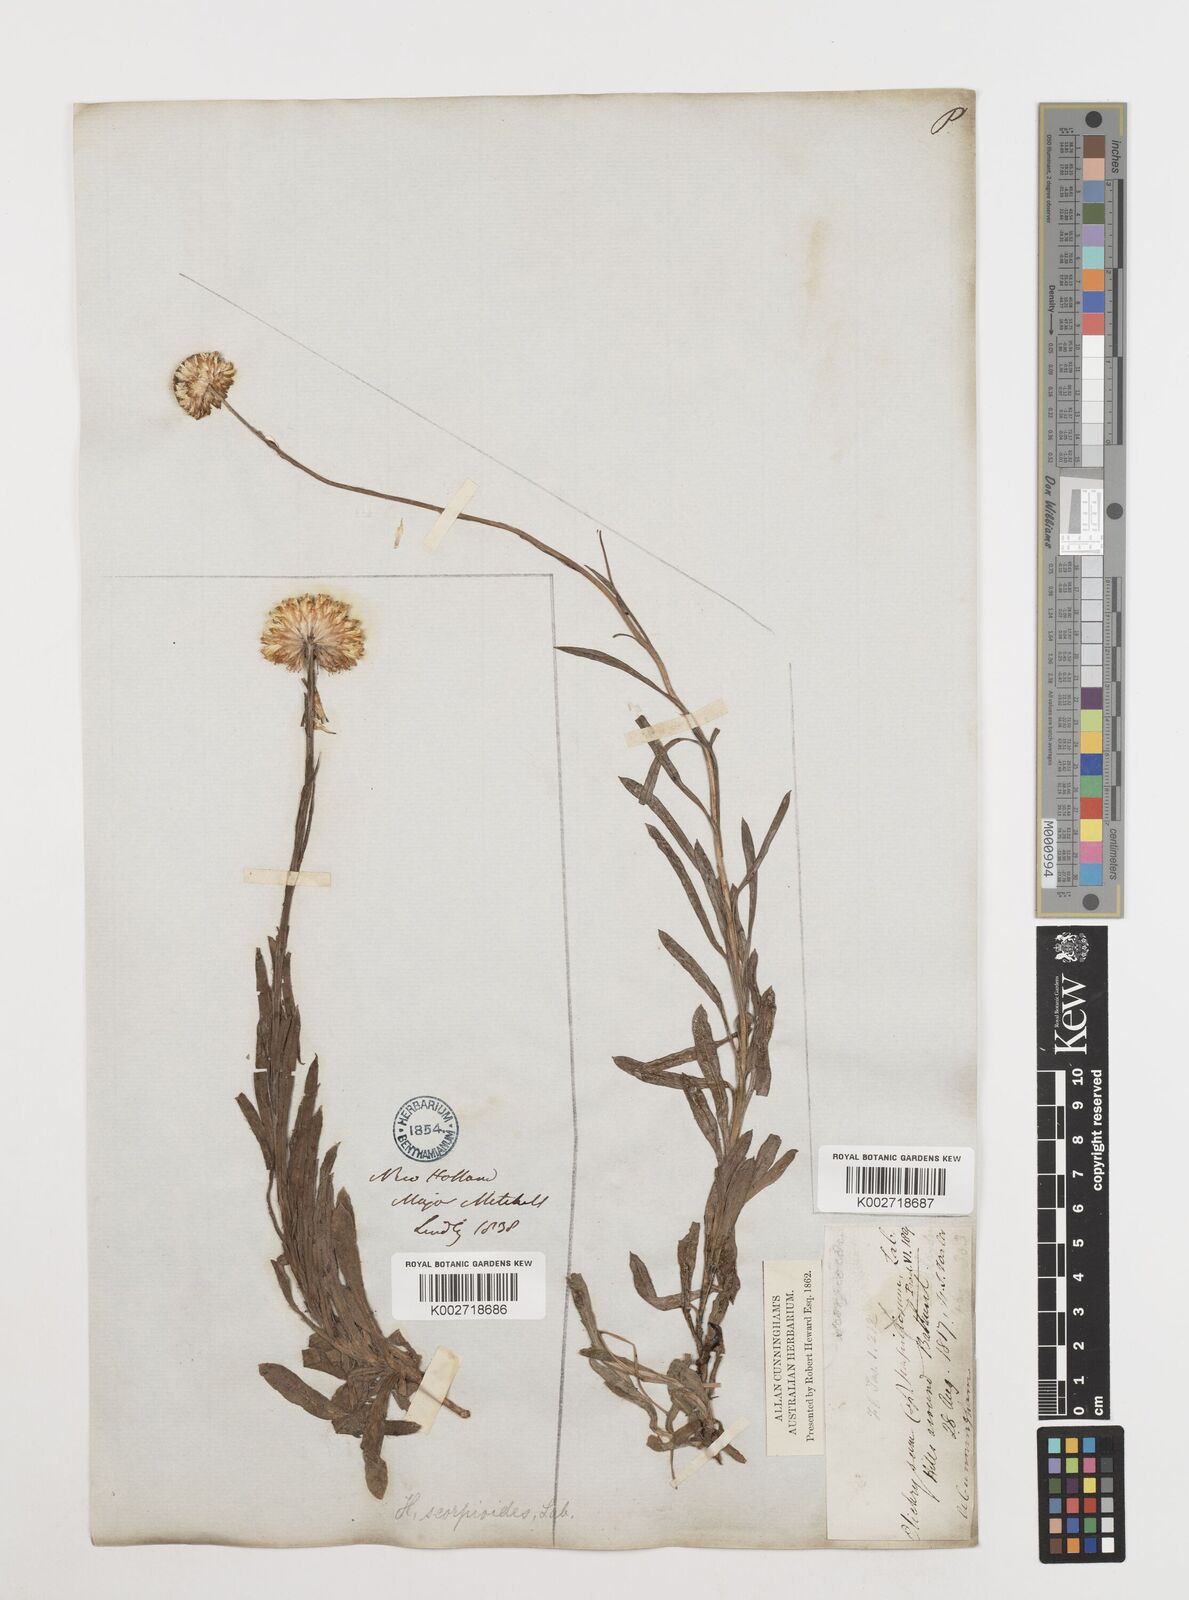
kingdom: Plantae
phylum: Tracheophyta
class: Magnoliopsida
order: Asterales
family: Asteraceae
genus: Coronidium
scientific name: Coronidium scorpioides
